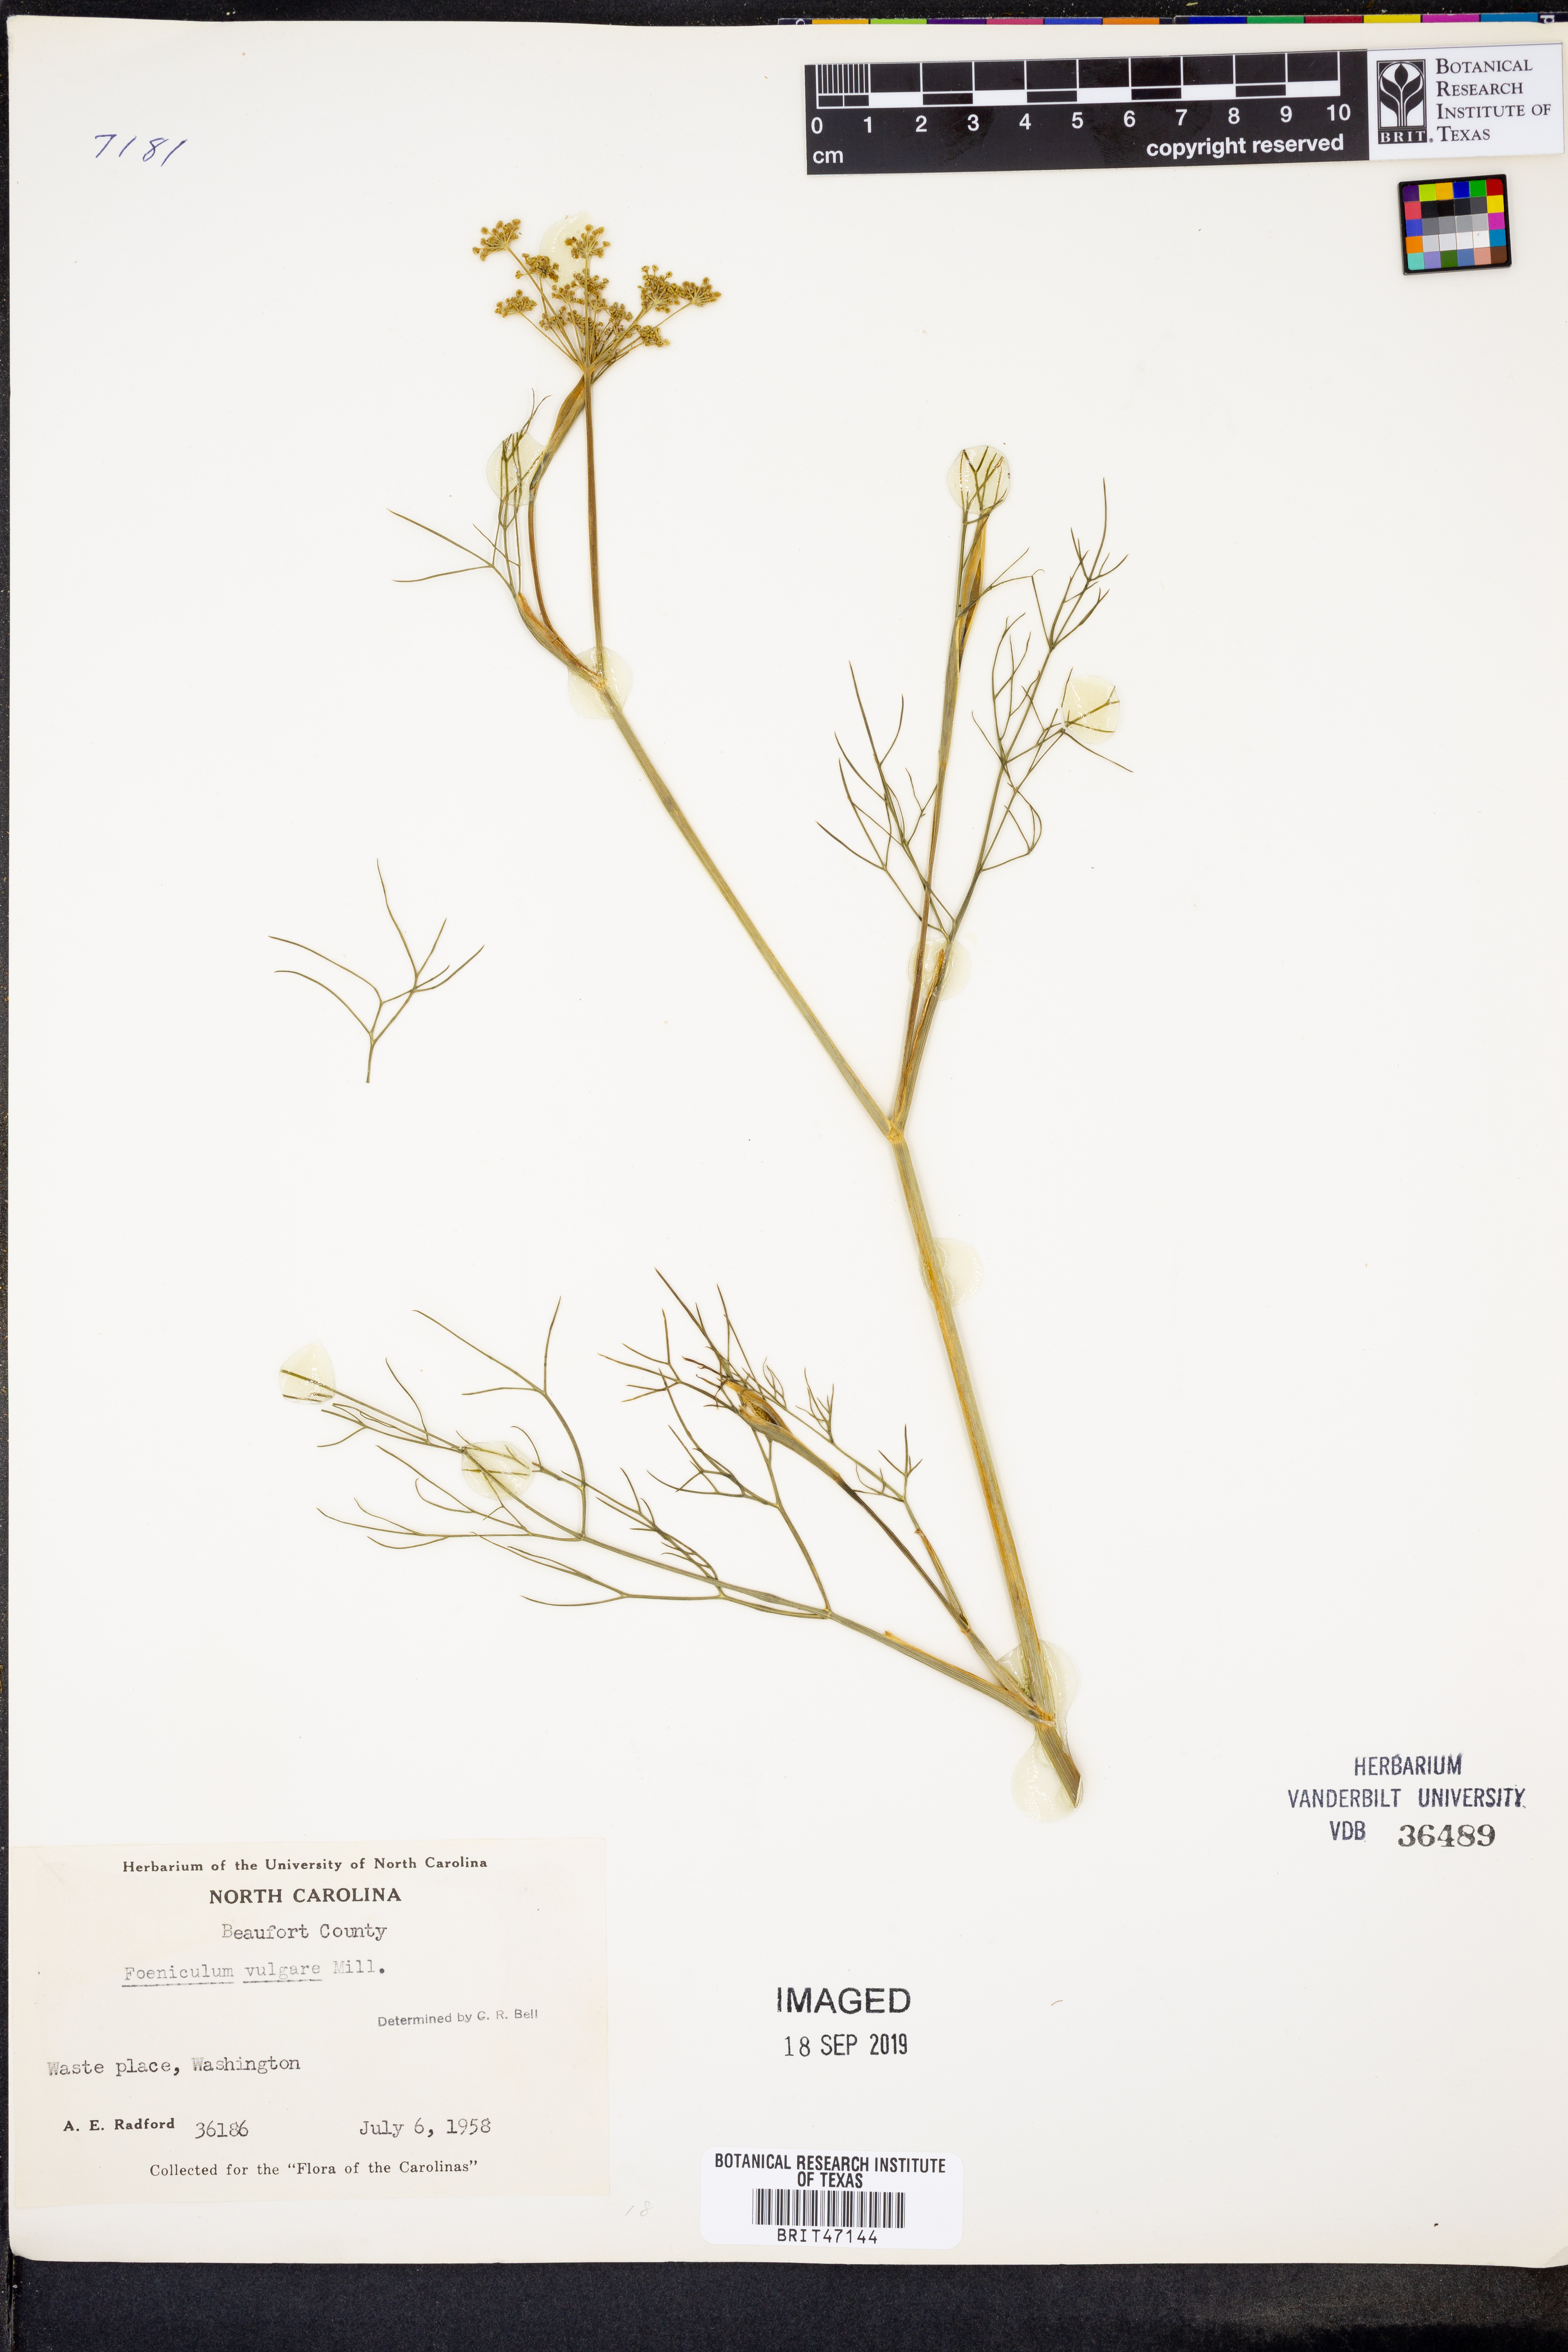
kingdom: Plantae
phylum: Tracheophyta
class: Magnoliopsida
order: Apiales
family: Apiaceae
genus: Foeniculum
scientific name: Foeniculum vulgare
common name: Fennel
